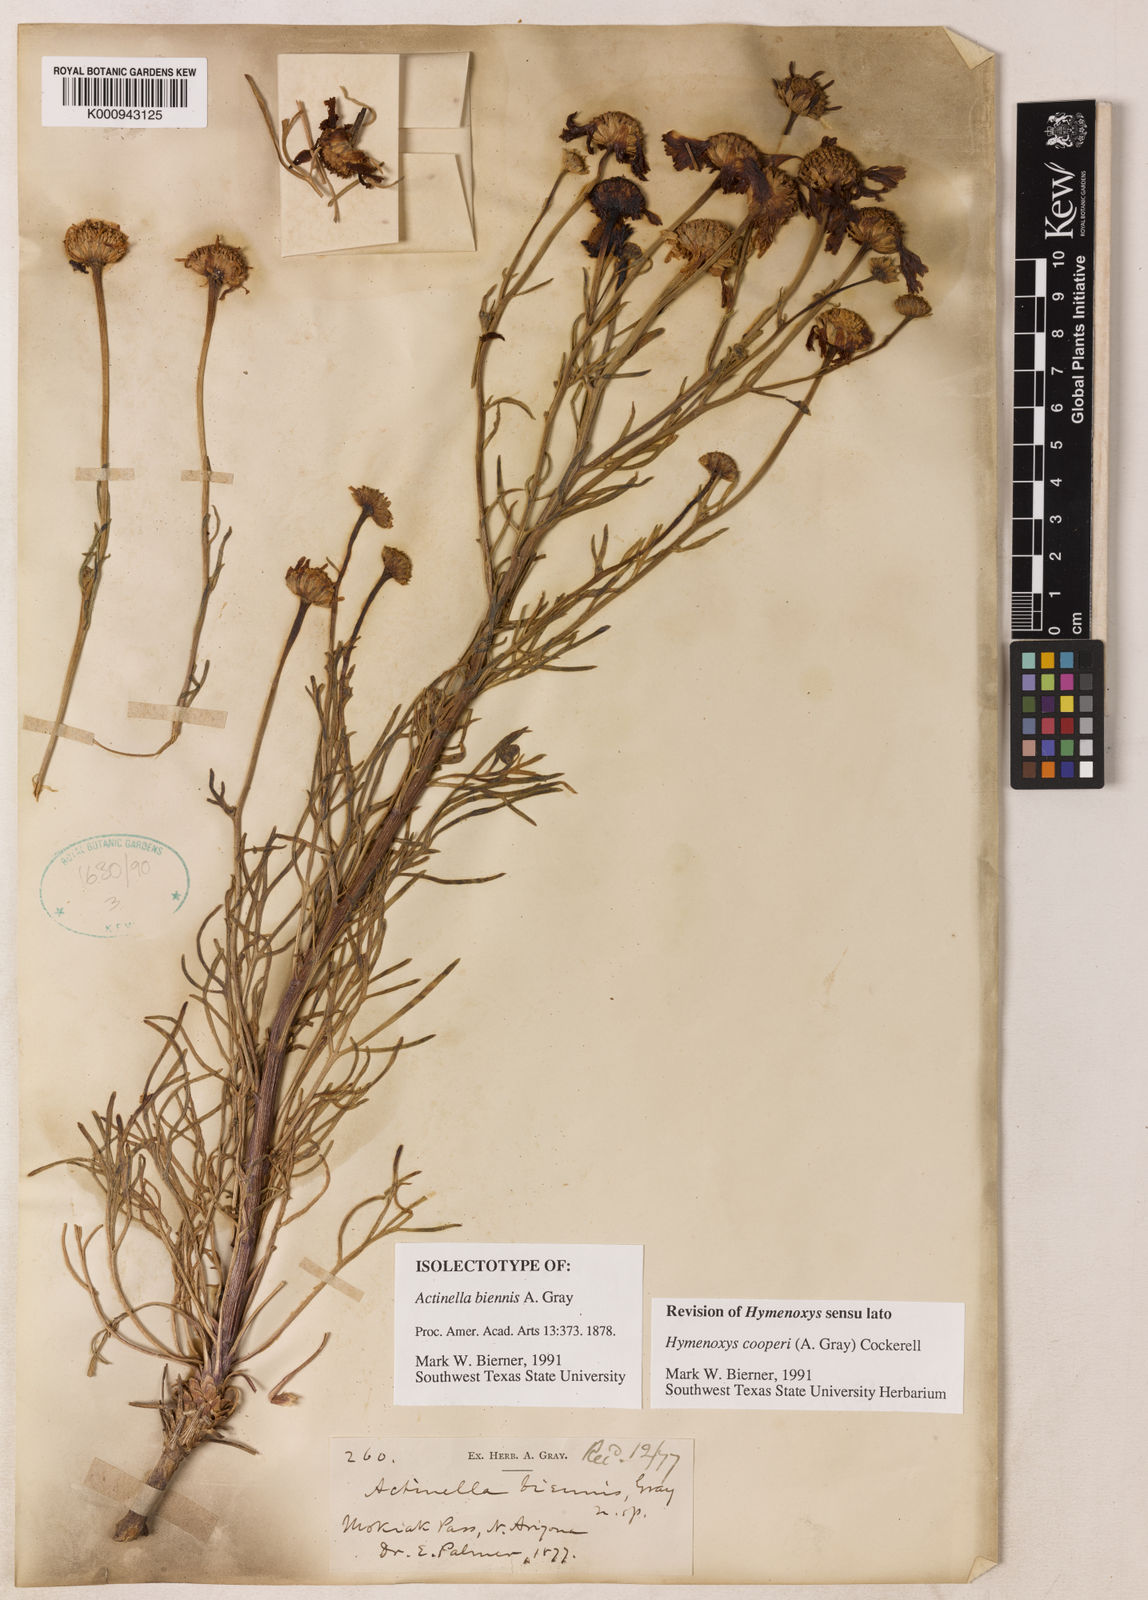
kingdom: Plantae
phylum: Tracheophyta
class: Magnoliopsida
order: Asterales
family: Asteraceae
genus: Hymenoxys
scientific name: Hymenoxys cooperi
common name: Cooper's bitterweed
